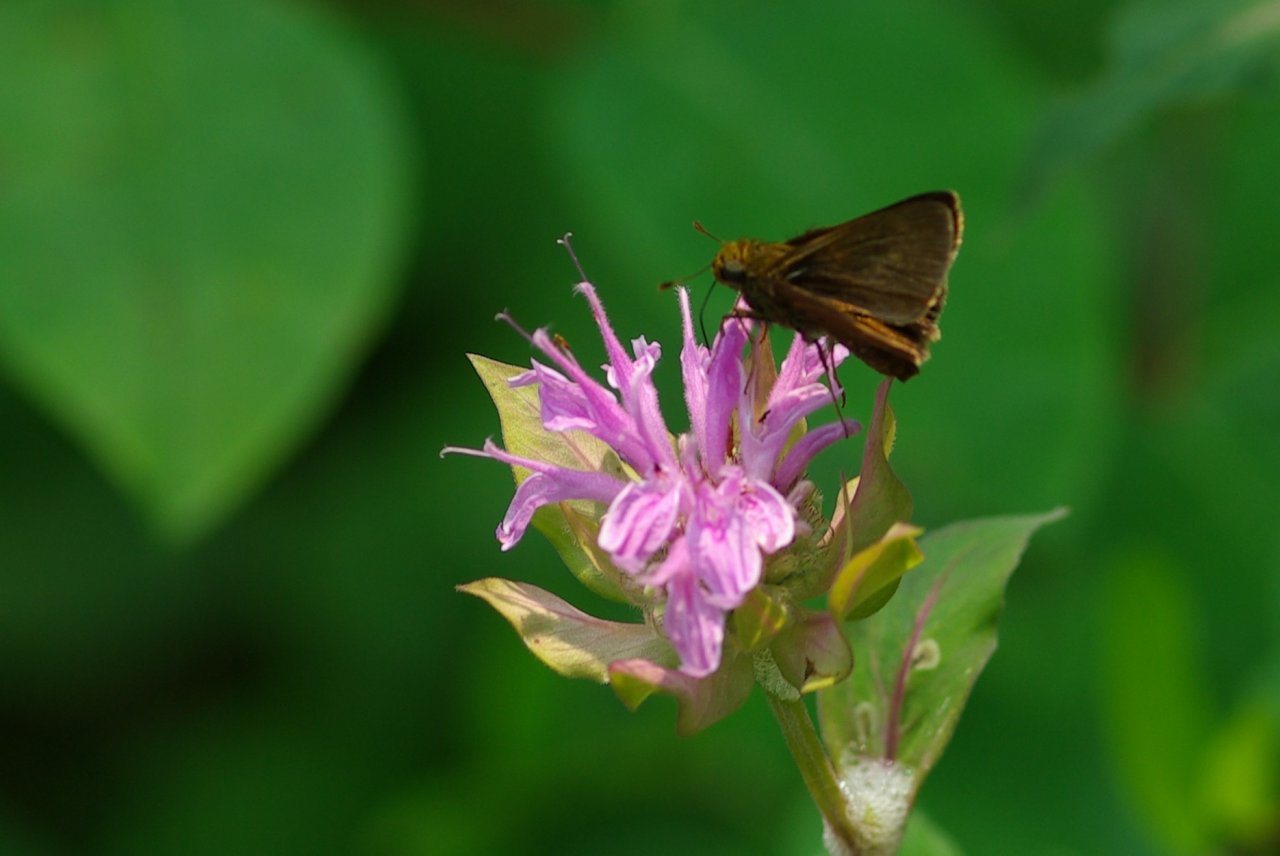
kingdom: Animalia
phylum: Arthropoda
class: Insecta
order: Lepidoptera
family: Hesperiidae
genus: Euphyes
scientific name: Euphyes vestris
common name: Dun Skipper
